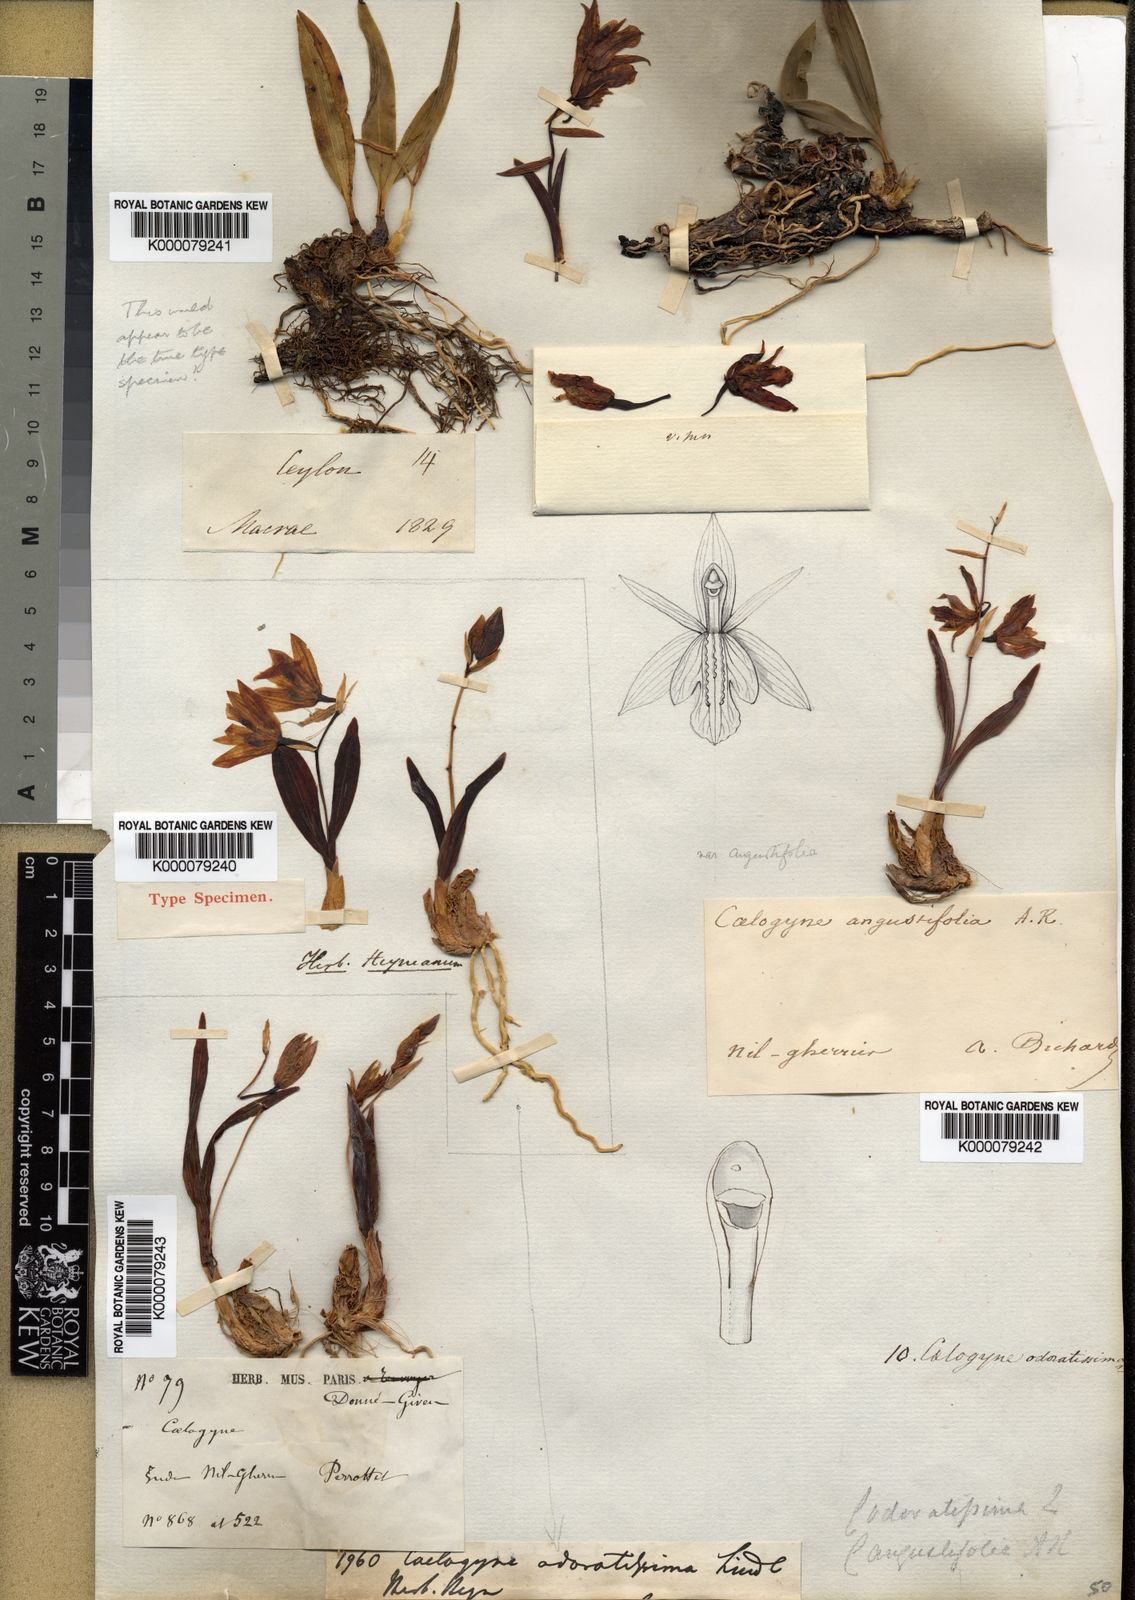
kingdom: Plantae
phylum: Tracheophyta
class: Liliopsida
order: Asparagales
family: Orchidaceae
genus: Coelogyne
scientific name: Coelogyne odoratissima
